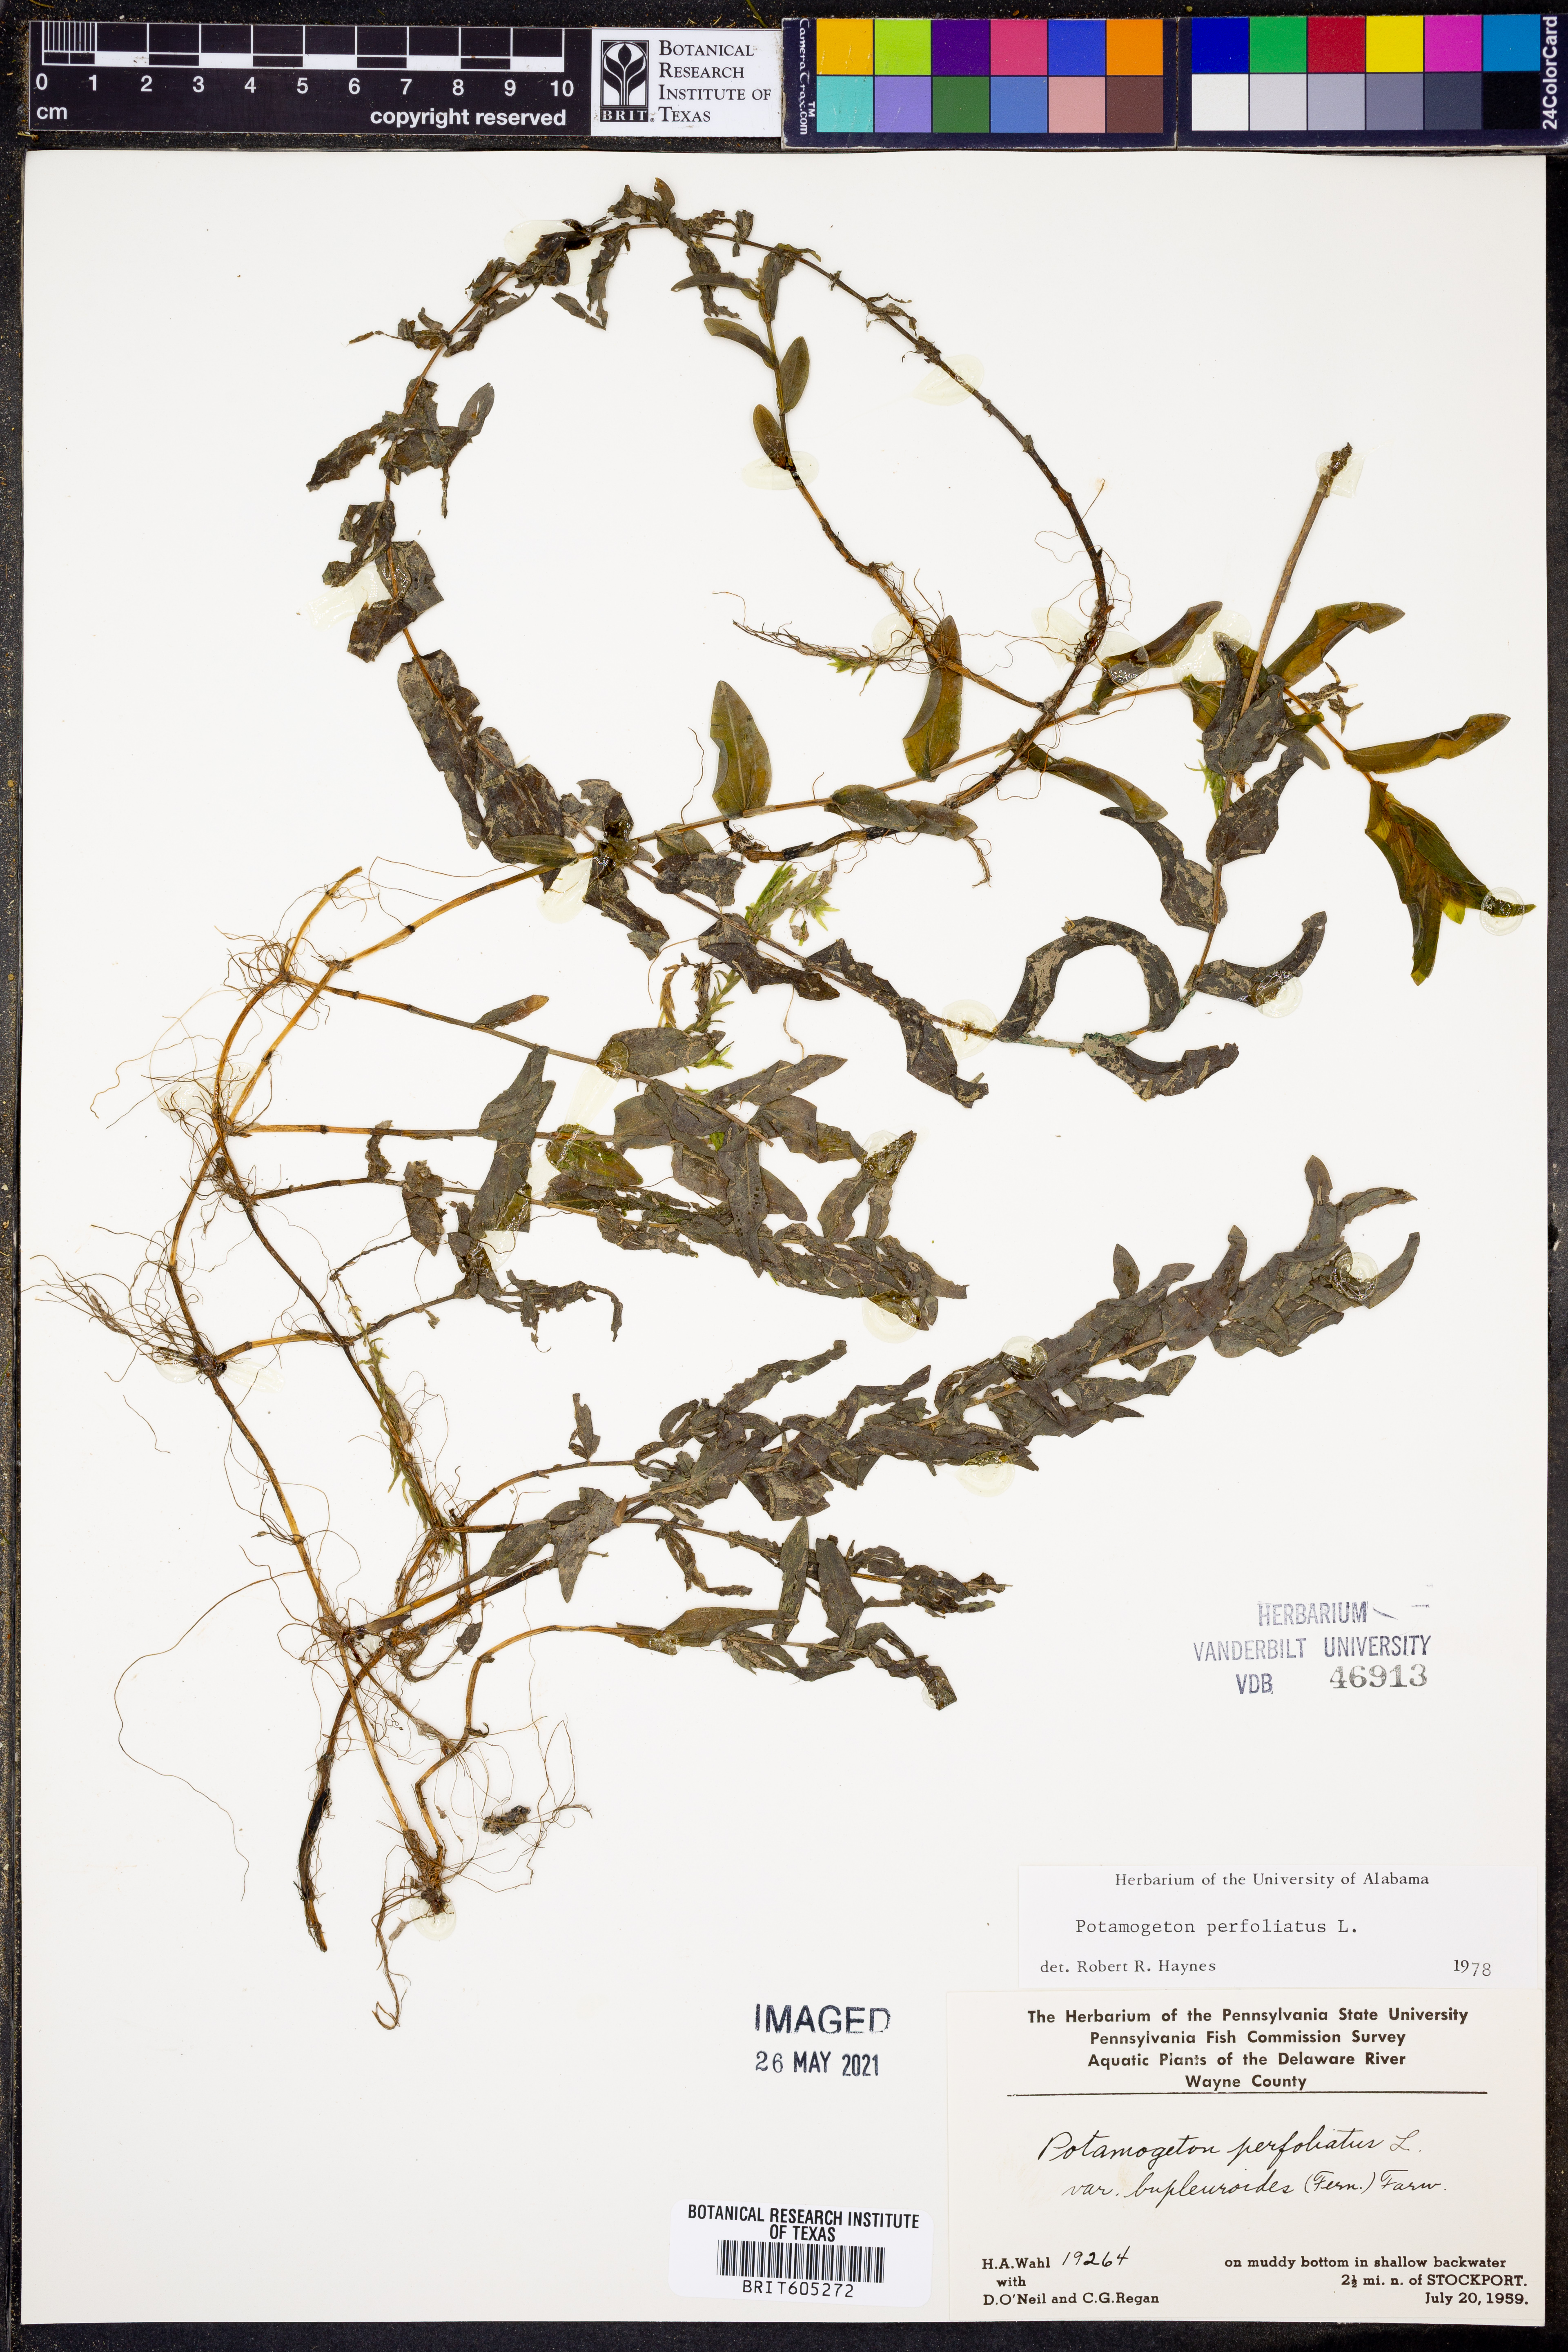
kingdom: Plantae
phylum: Tracheophyta
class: Liliopsida
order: Alismatales
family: Potamogetonaceae
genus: Potamogeton
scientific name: Potamogeton perfoliatus
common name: Perfoliate pondweed
